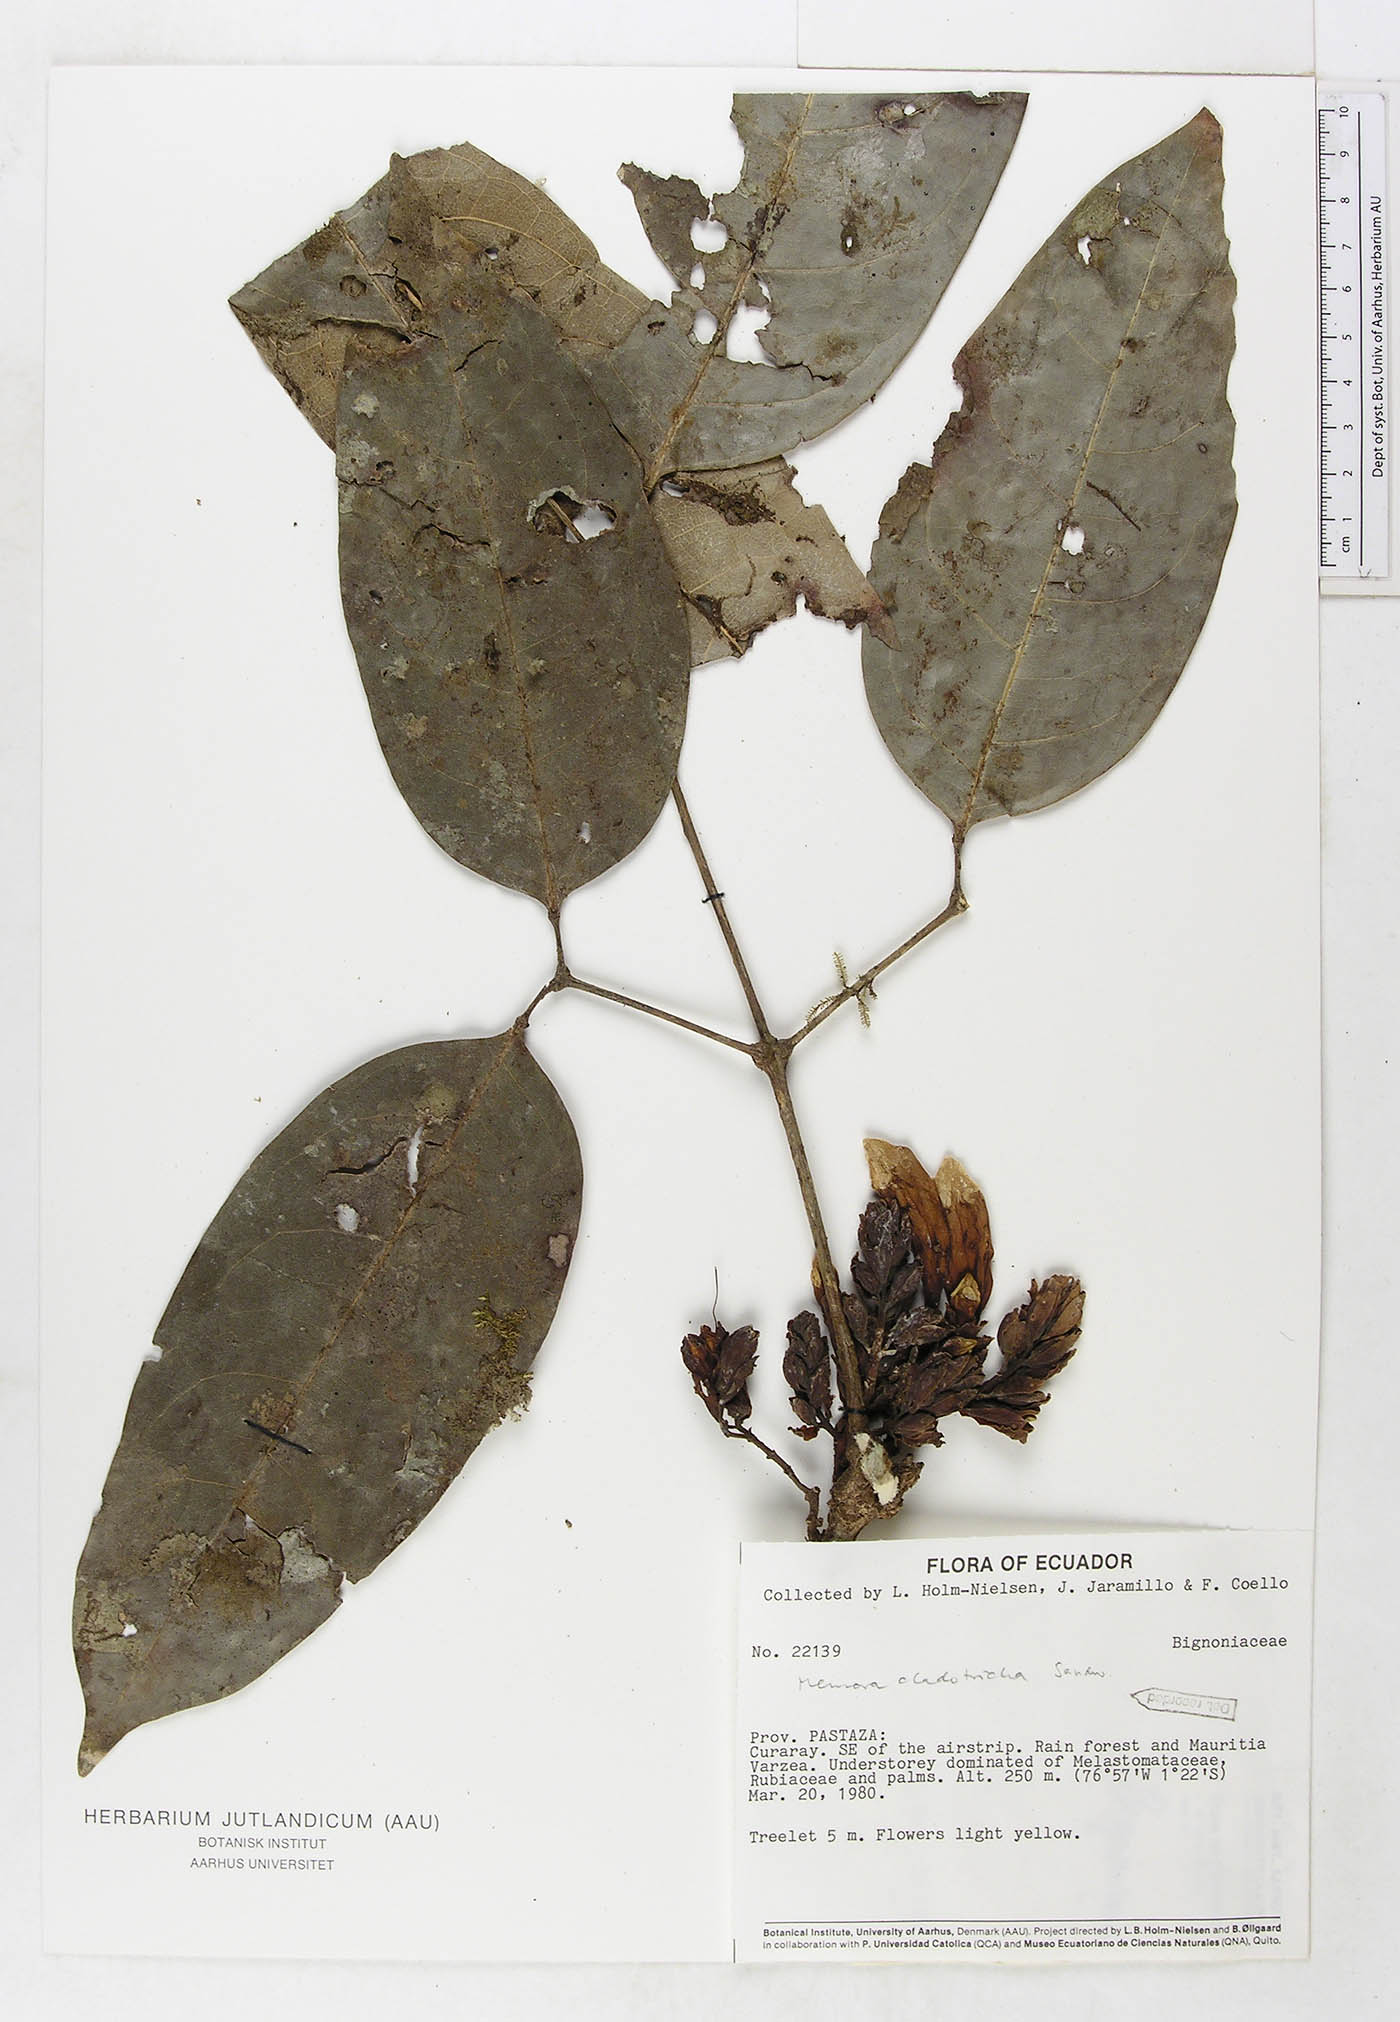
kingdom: Plantae
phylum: Tracheophyta
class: Magnoliopsida
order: Lamiales
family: Bignoniaceae
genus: Adenocalymma
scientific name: Adenocalymma cladotrichum
